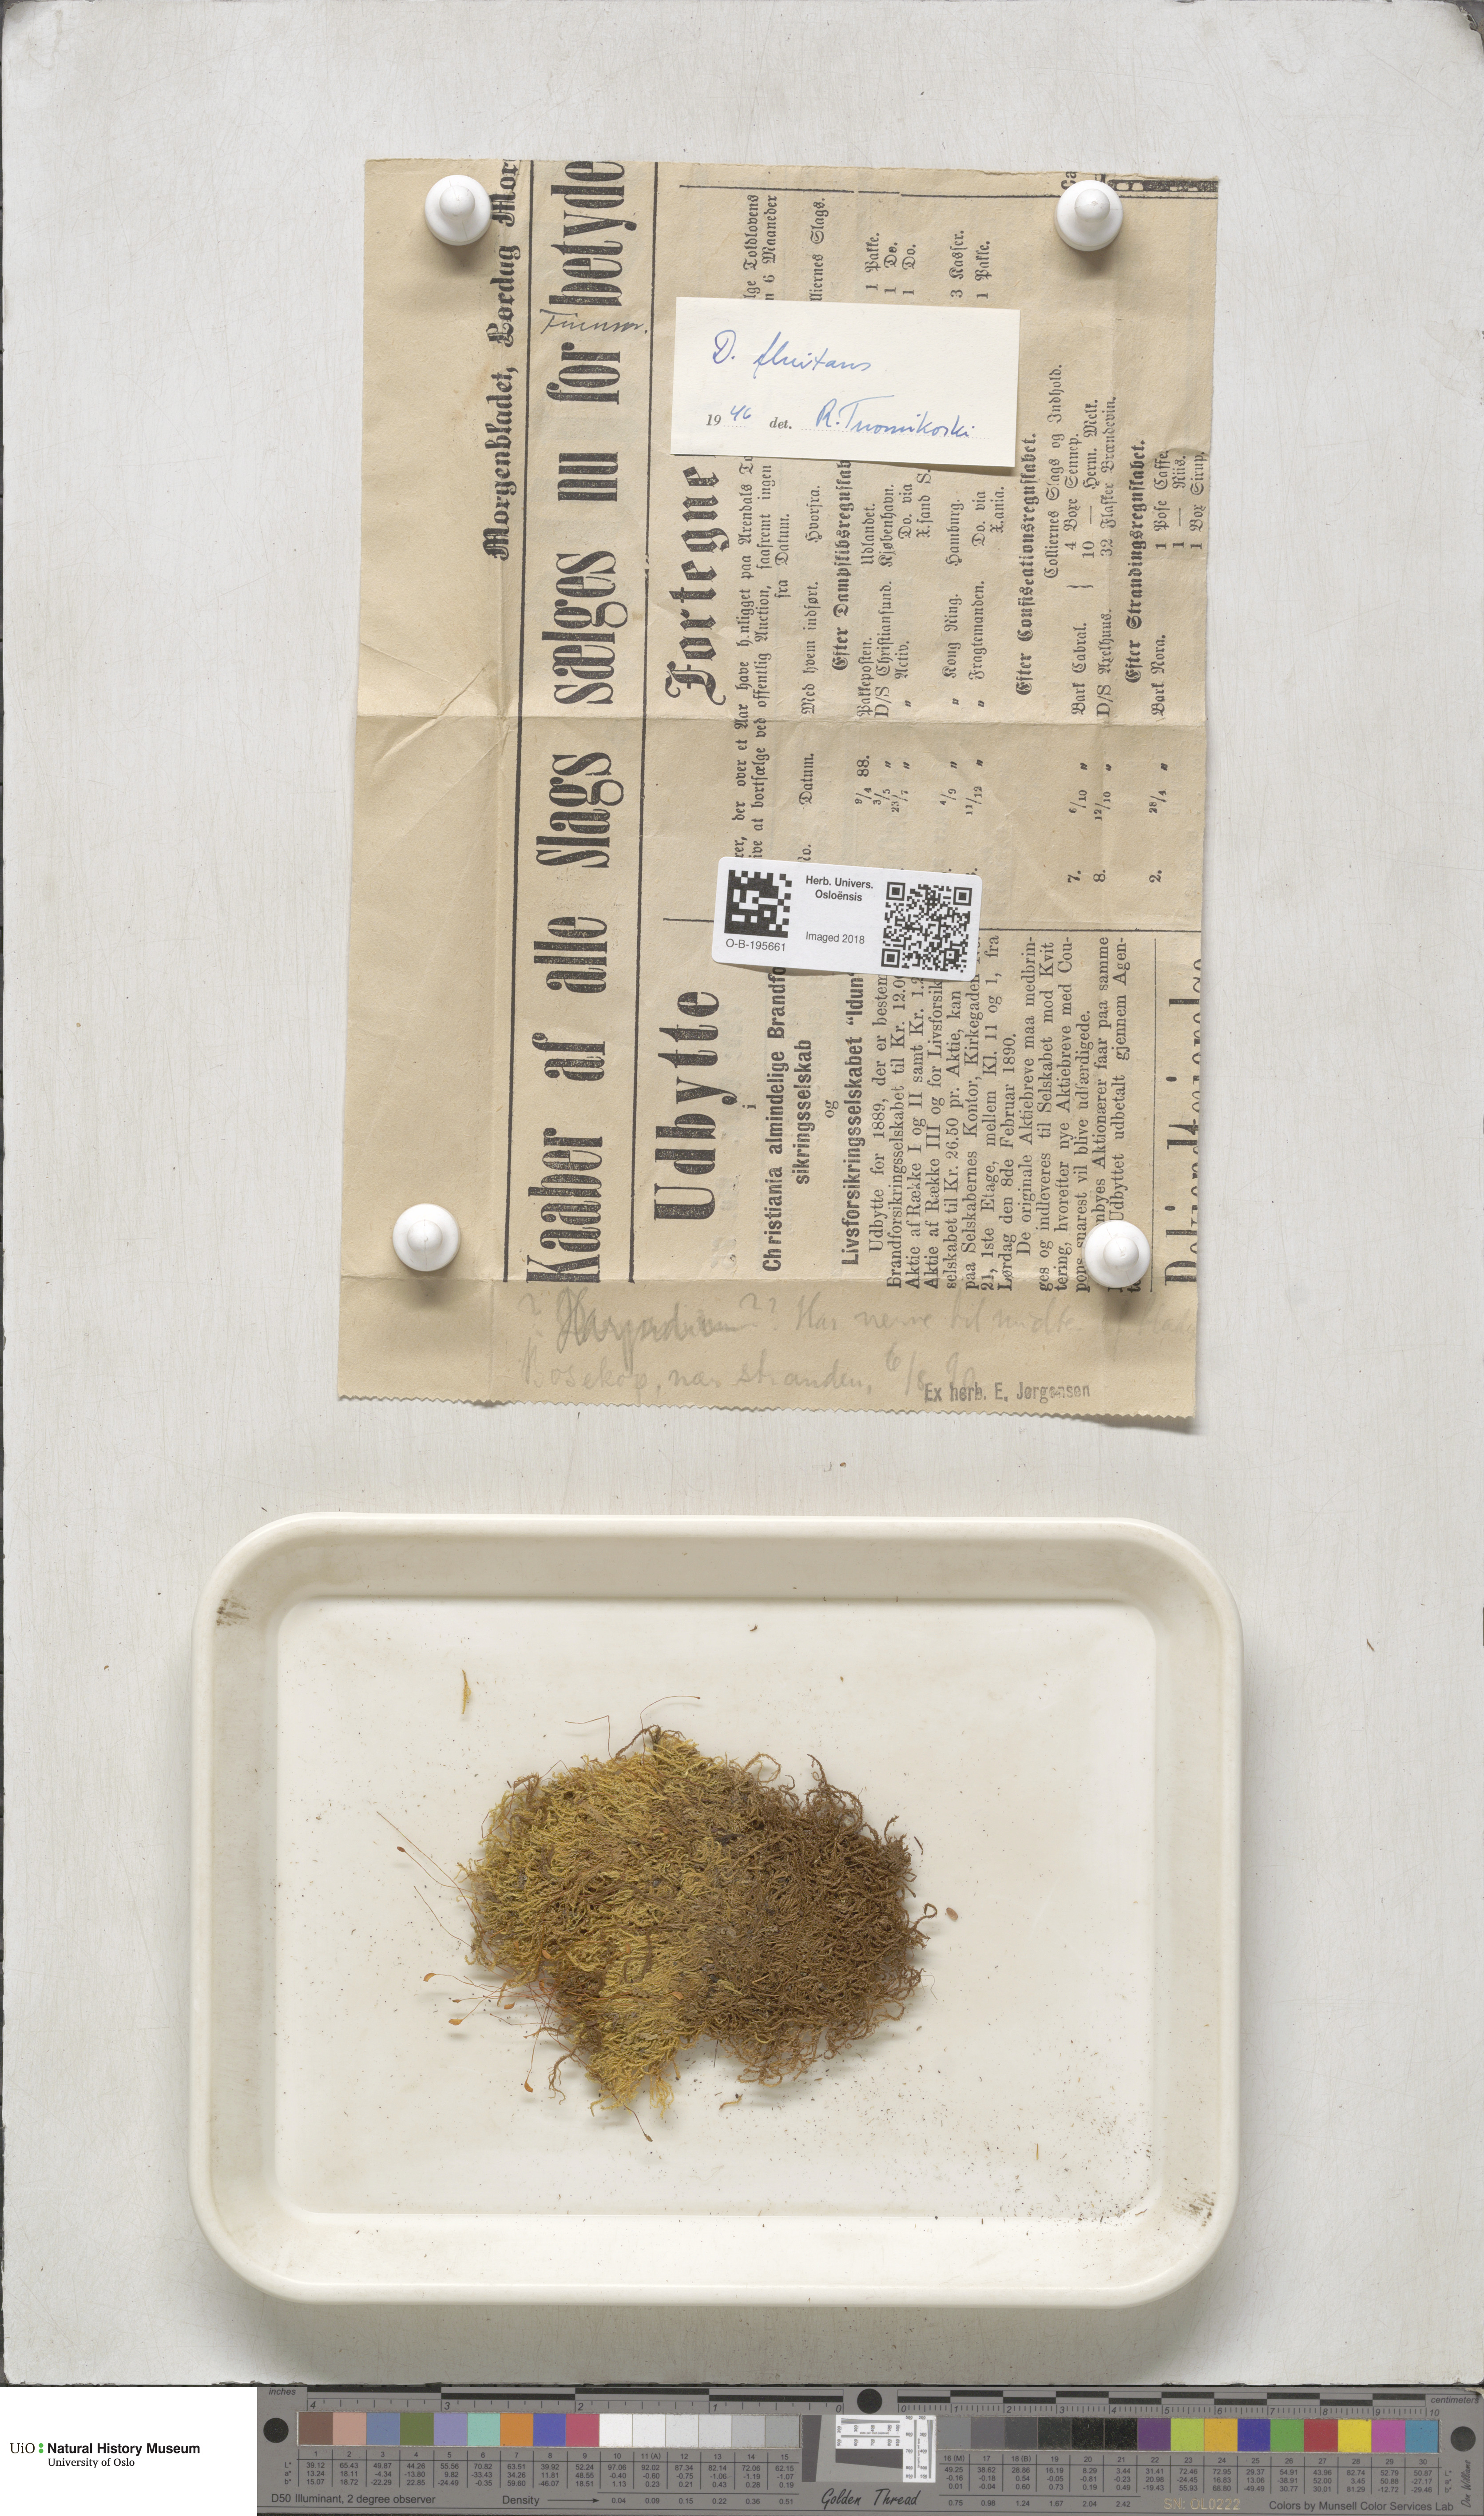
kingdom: Plantae
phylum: Bryophyta
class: Bryopsida
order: Hypnales
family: Calliergonaceae
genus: Warnstorfia
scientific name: Warnstorfia fluitans
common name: Floating hook moss
